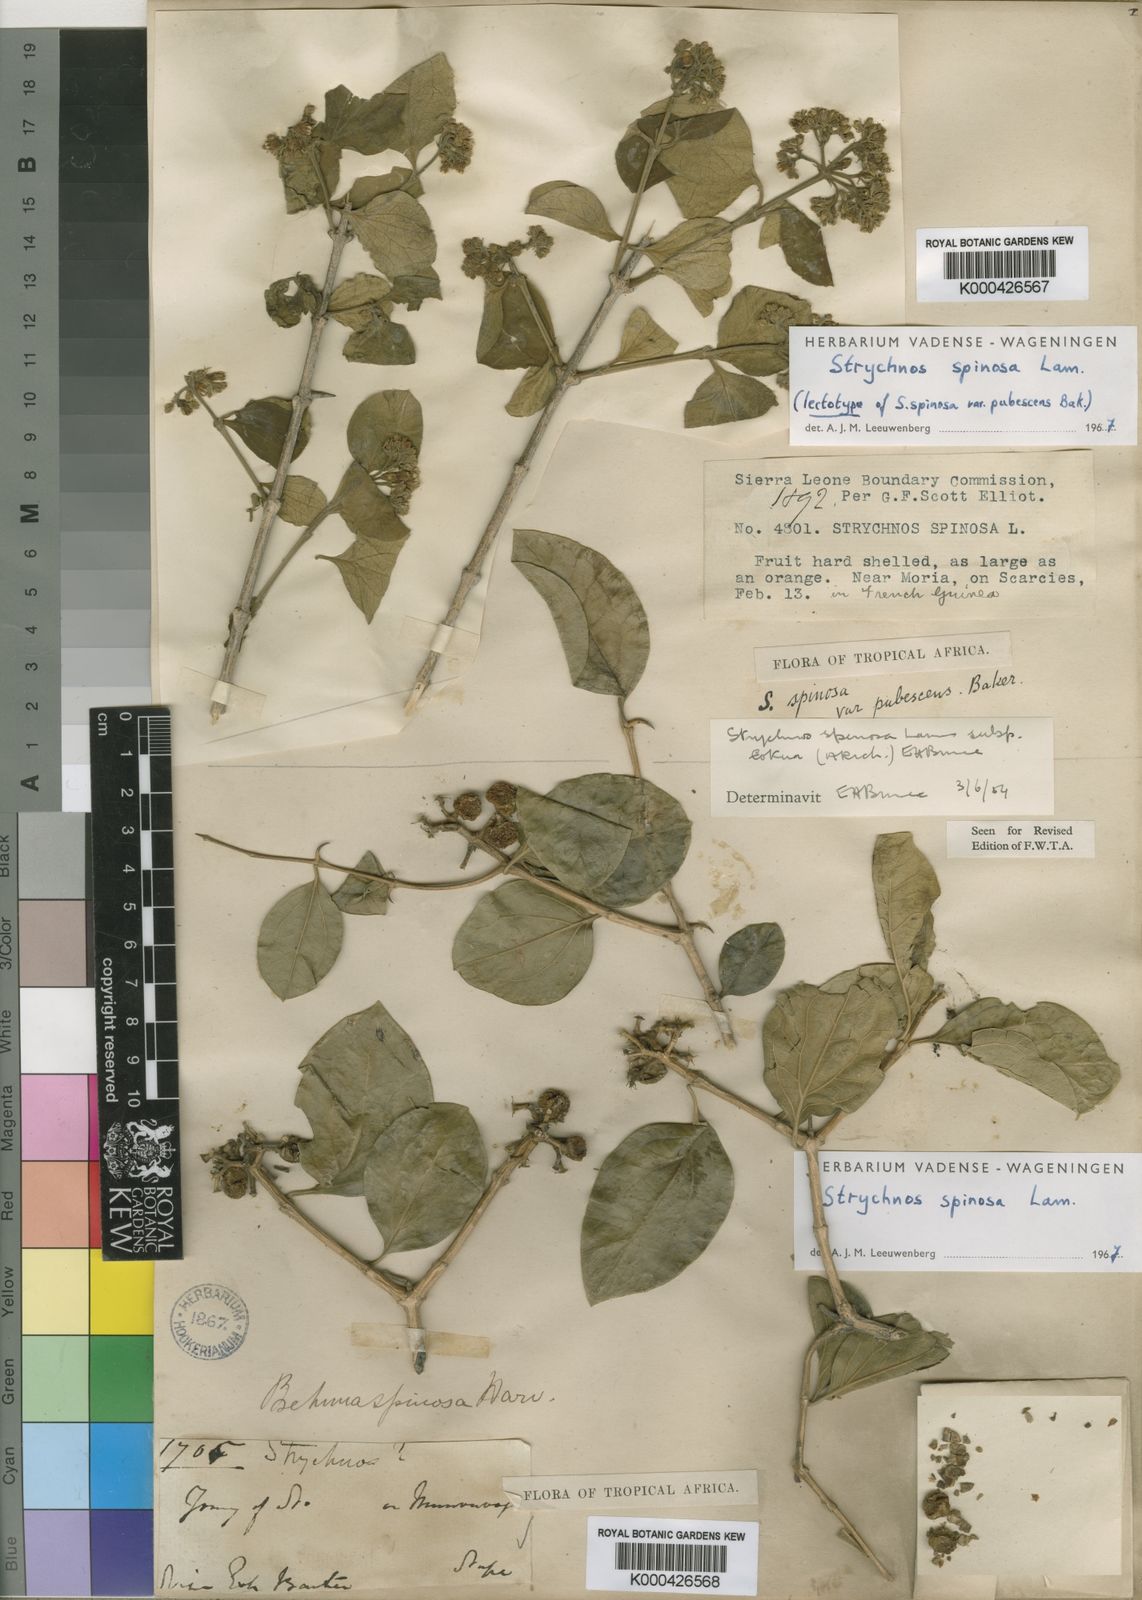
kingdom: Plantae
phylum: Tracheophyta
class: Magnoliopsida
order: Gentianales
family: Loganiaceae
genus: Strychnos
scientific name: Strychnos spinosa
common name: Natal orange
